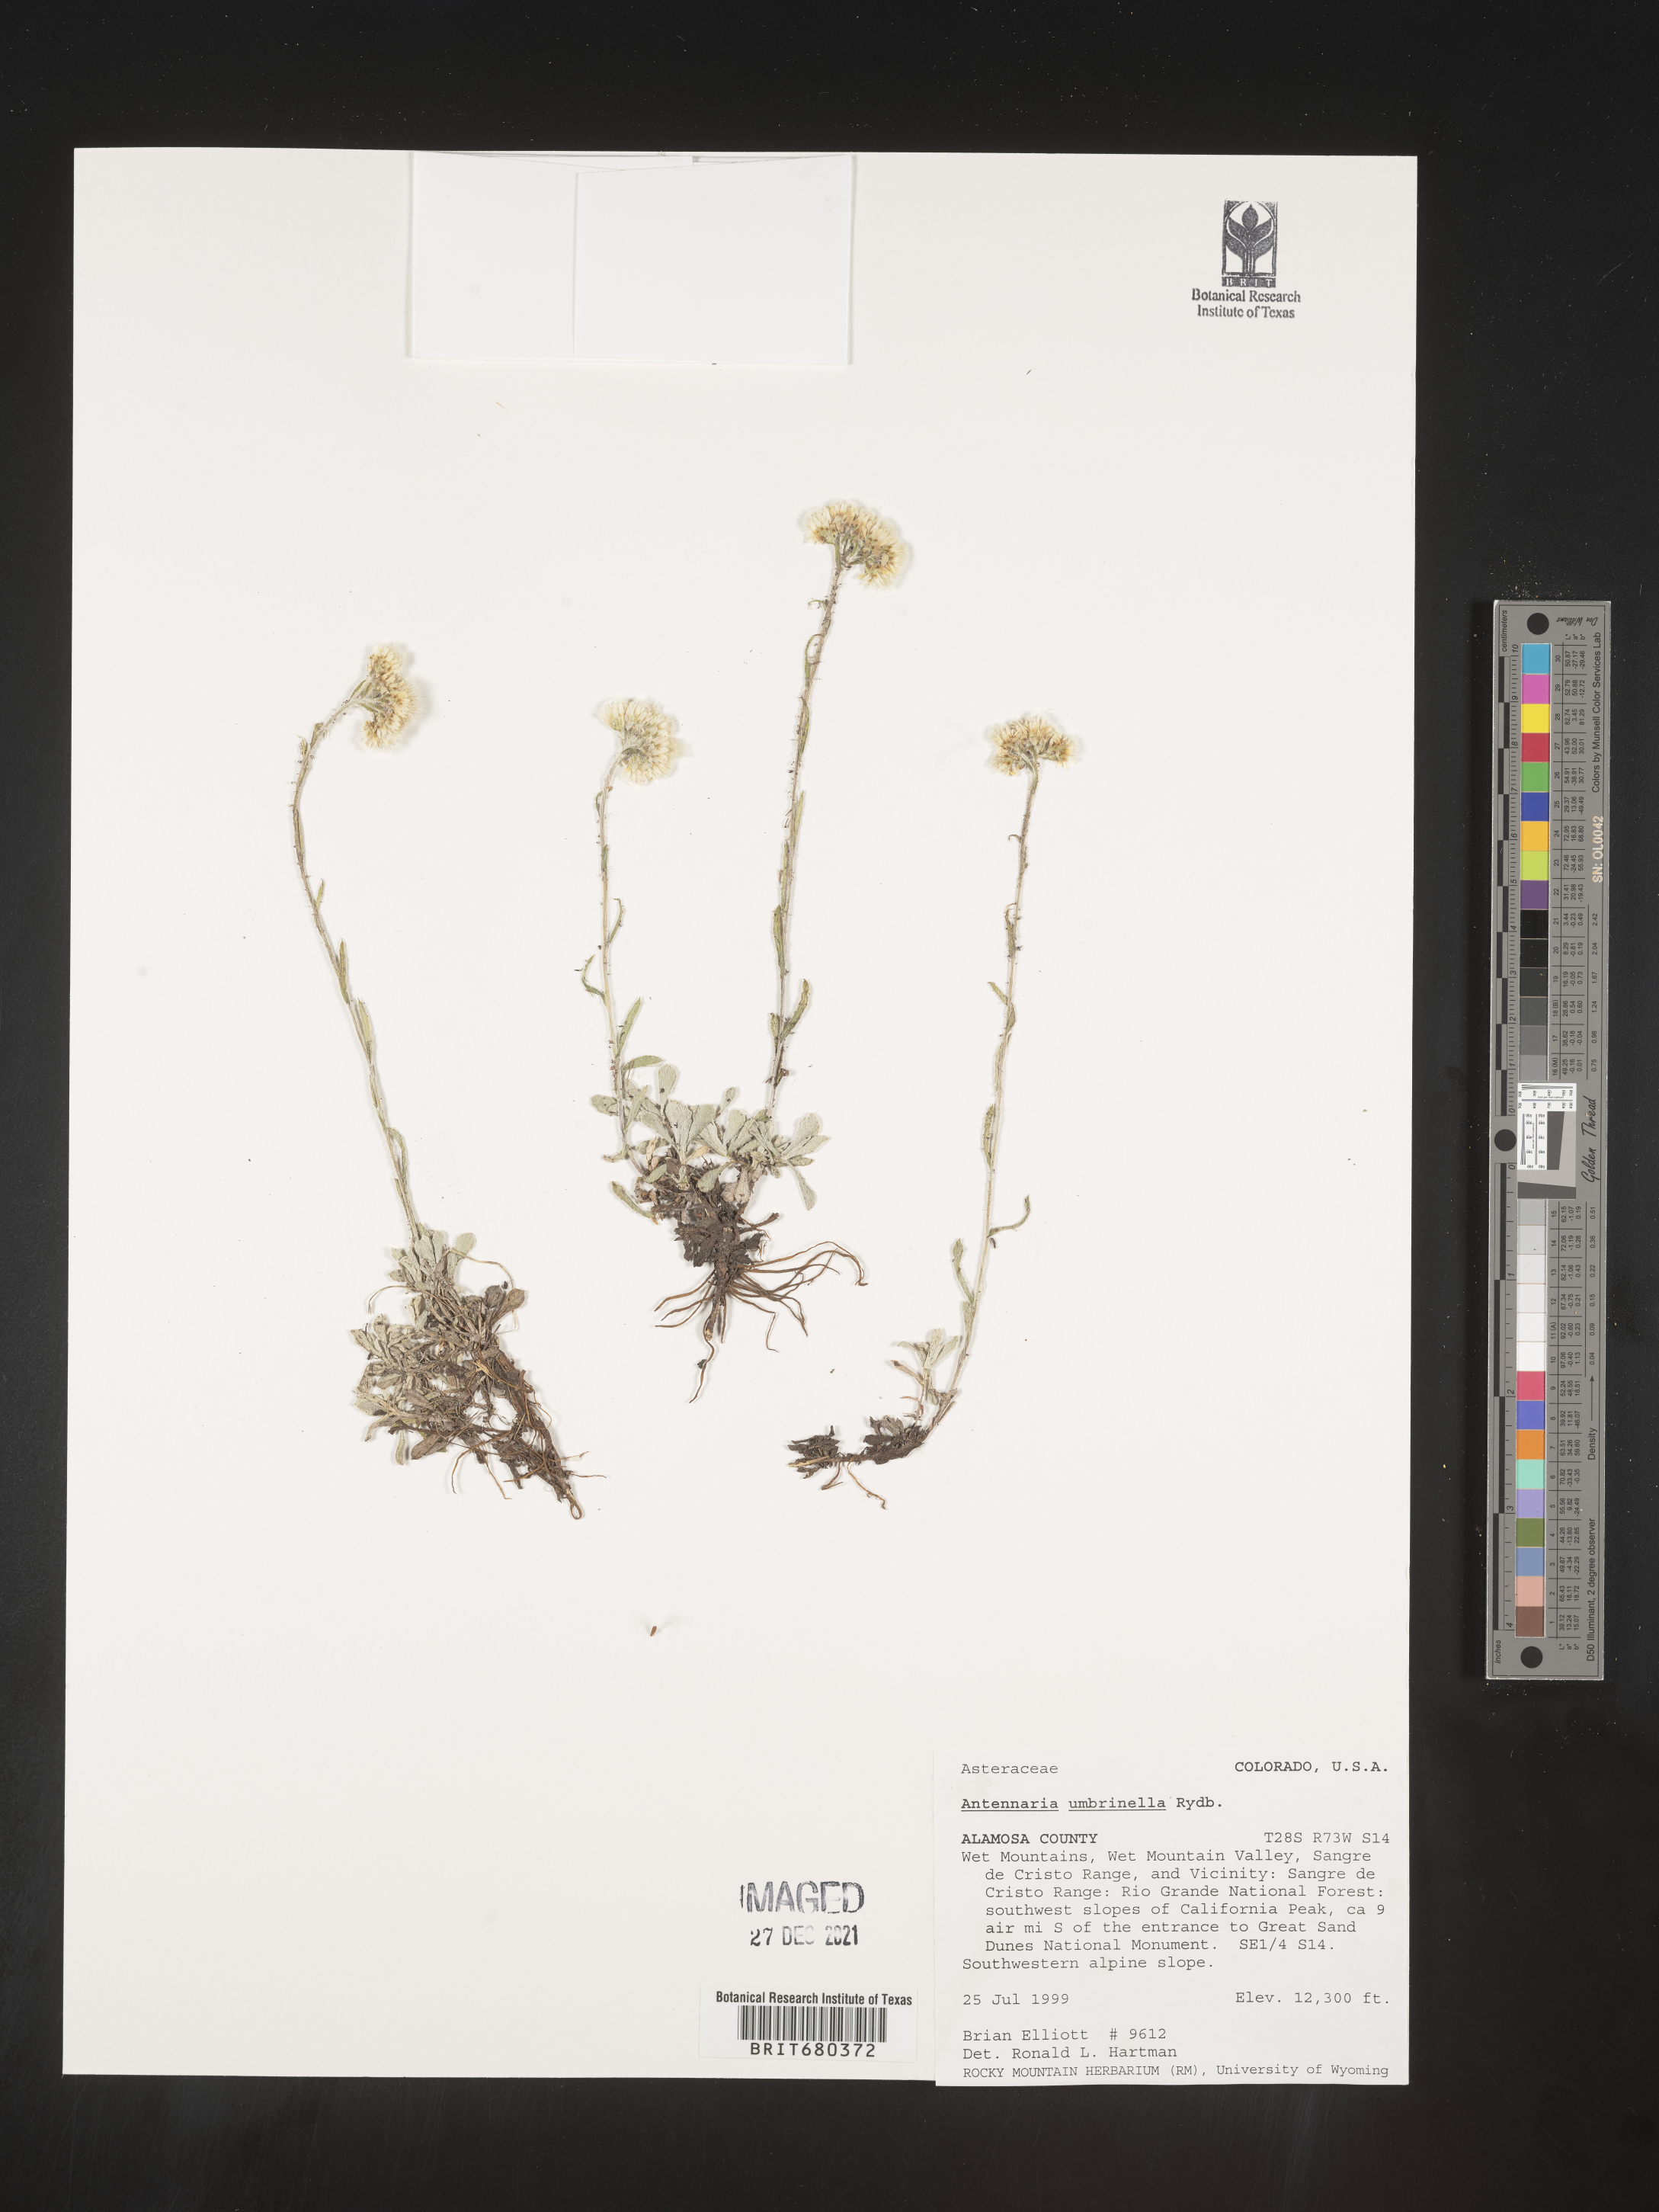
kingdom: Plantae
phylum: Tracheophyta
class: Magnoliopsida
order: Asterales
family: Asteraceae
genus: Antennaria
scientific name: Antennaria umbrinella
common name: Brown pussytoes
